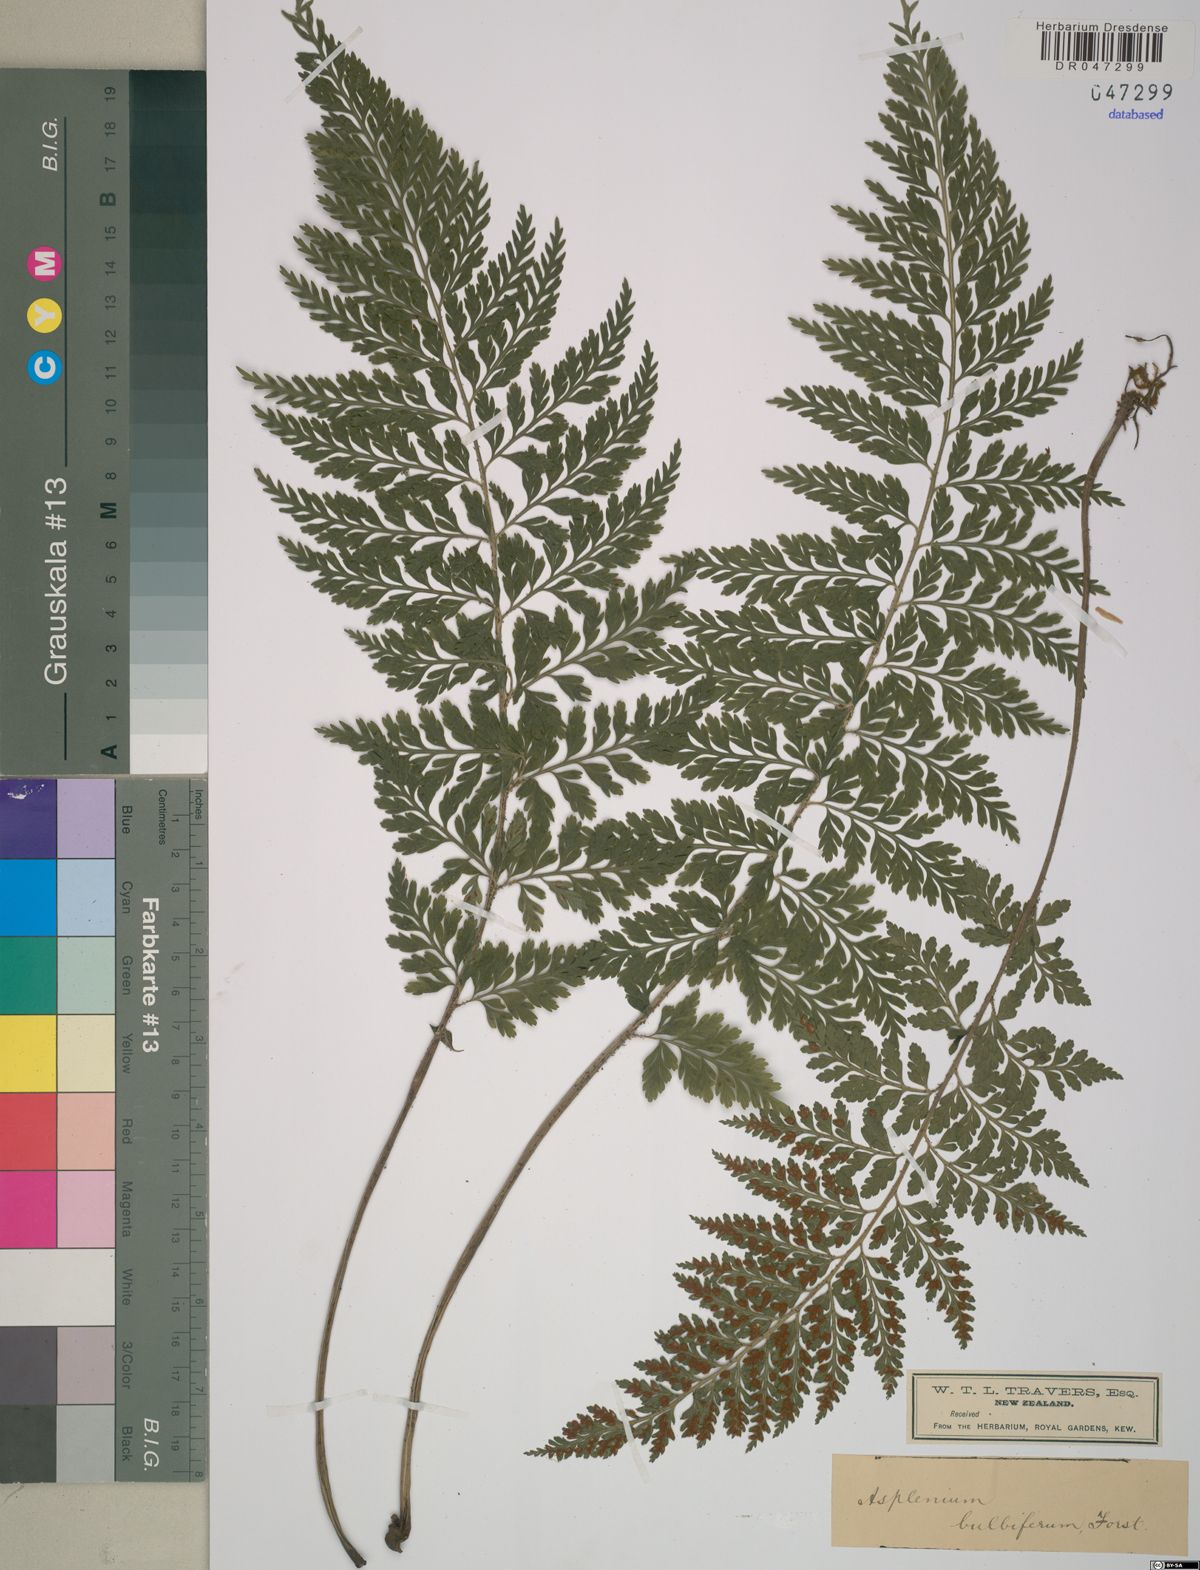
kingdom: Plantae
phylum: Tracheophyta
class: Polypodiopsida
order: Polypodiales
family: Aspleniaceae
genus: Asplenium
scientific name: Asplenium bulbiferum
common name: Mother fern
